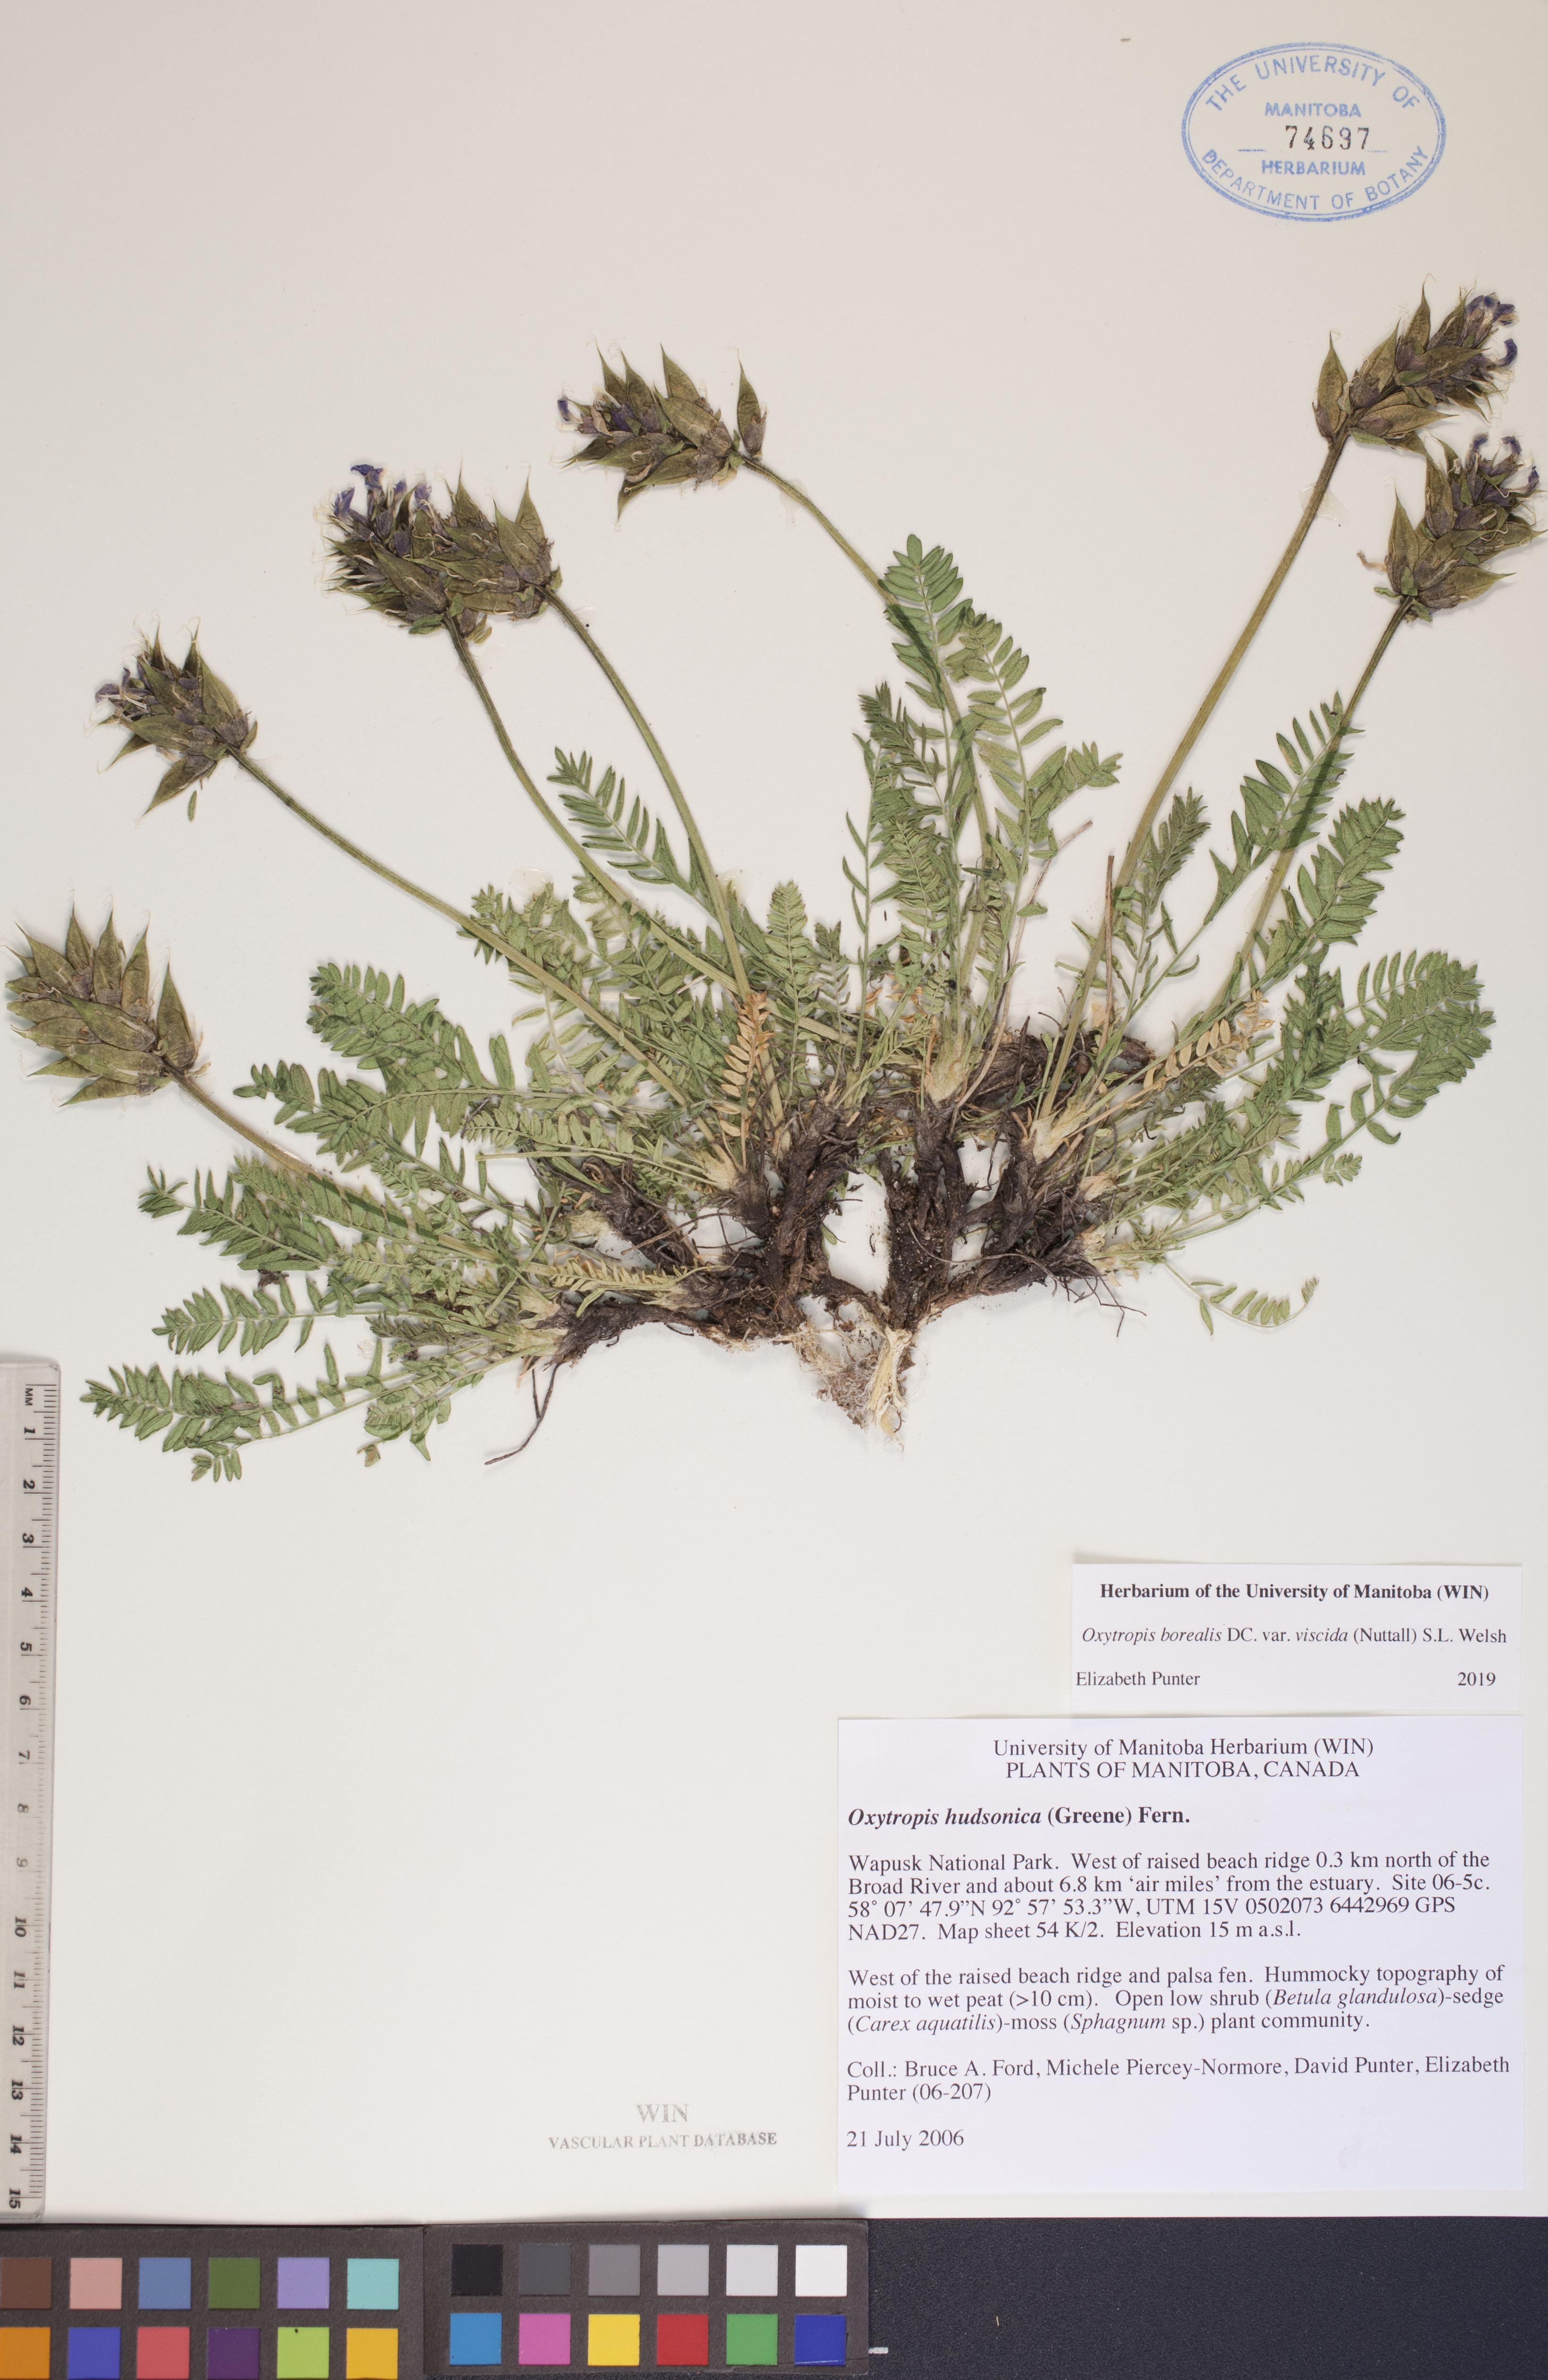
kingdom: Plantae
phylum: Tracheophyta
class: Magnoliopsida
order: Fabales
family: Fabaceae
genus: Oxytropis
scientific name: Oxytropis borealis
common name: Boreal locoweed
